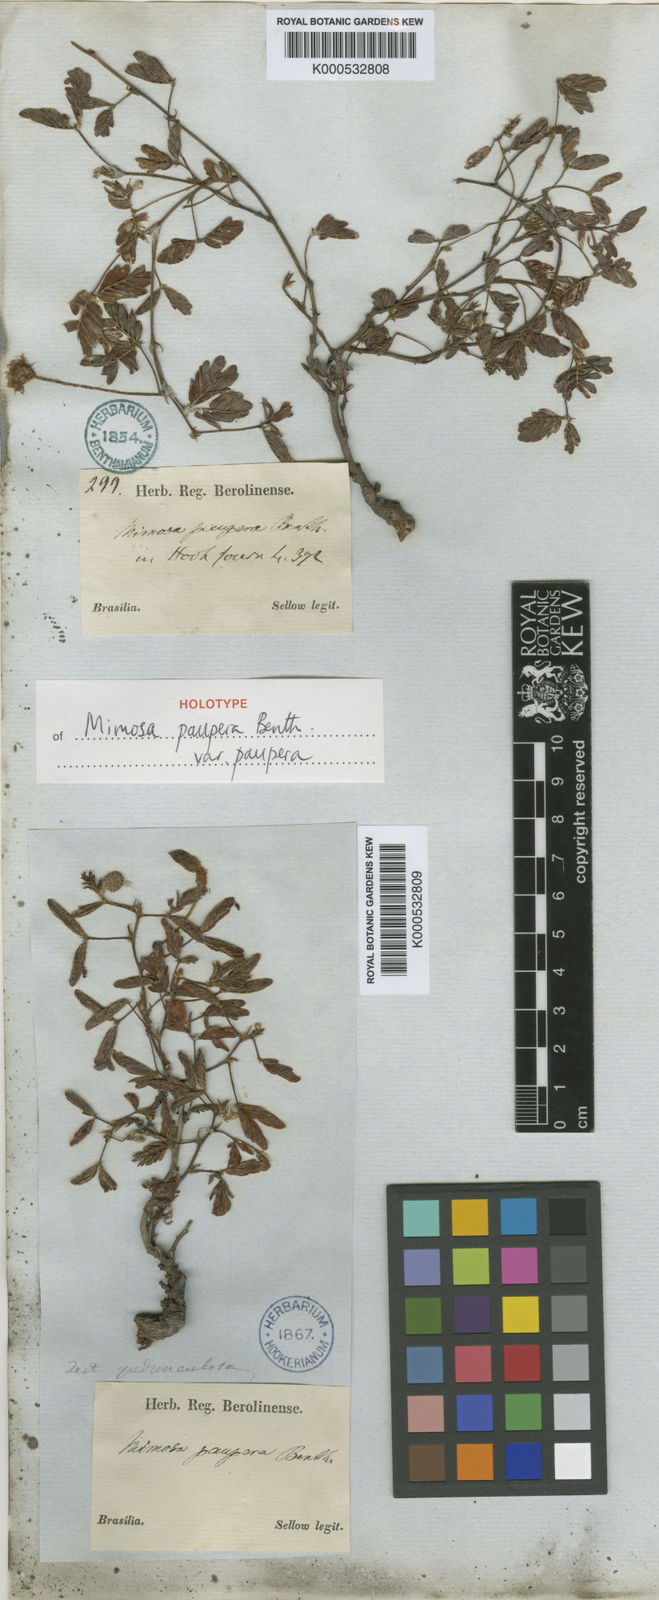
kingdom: Plantae
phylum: Tracheophyta
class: Magnoliopsida
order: Fabales
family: Fabaceae
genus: Mimosa
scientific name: Mimosa paupera
